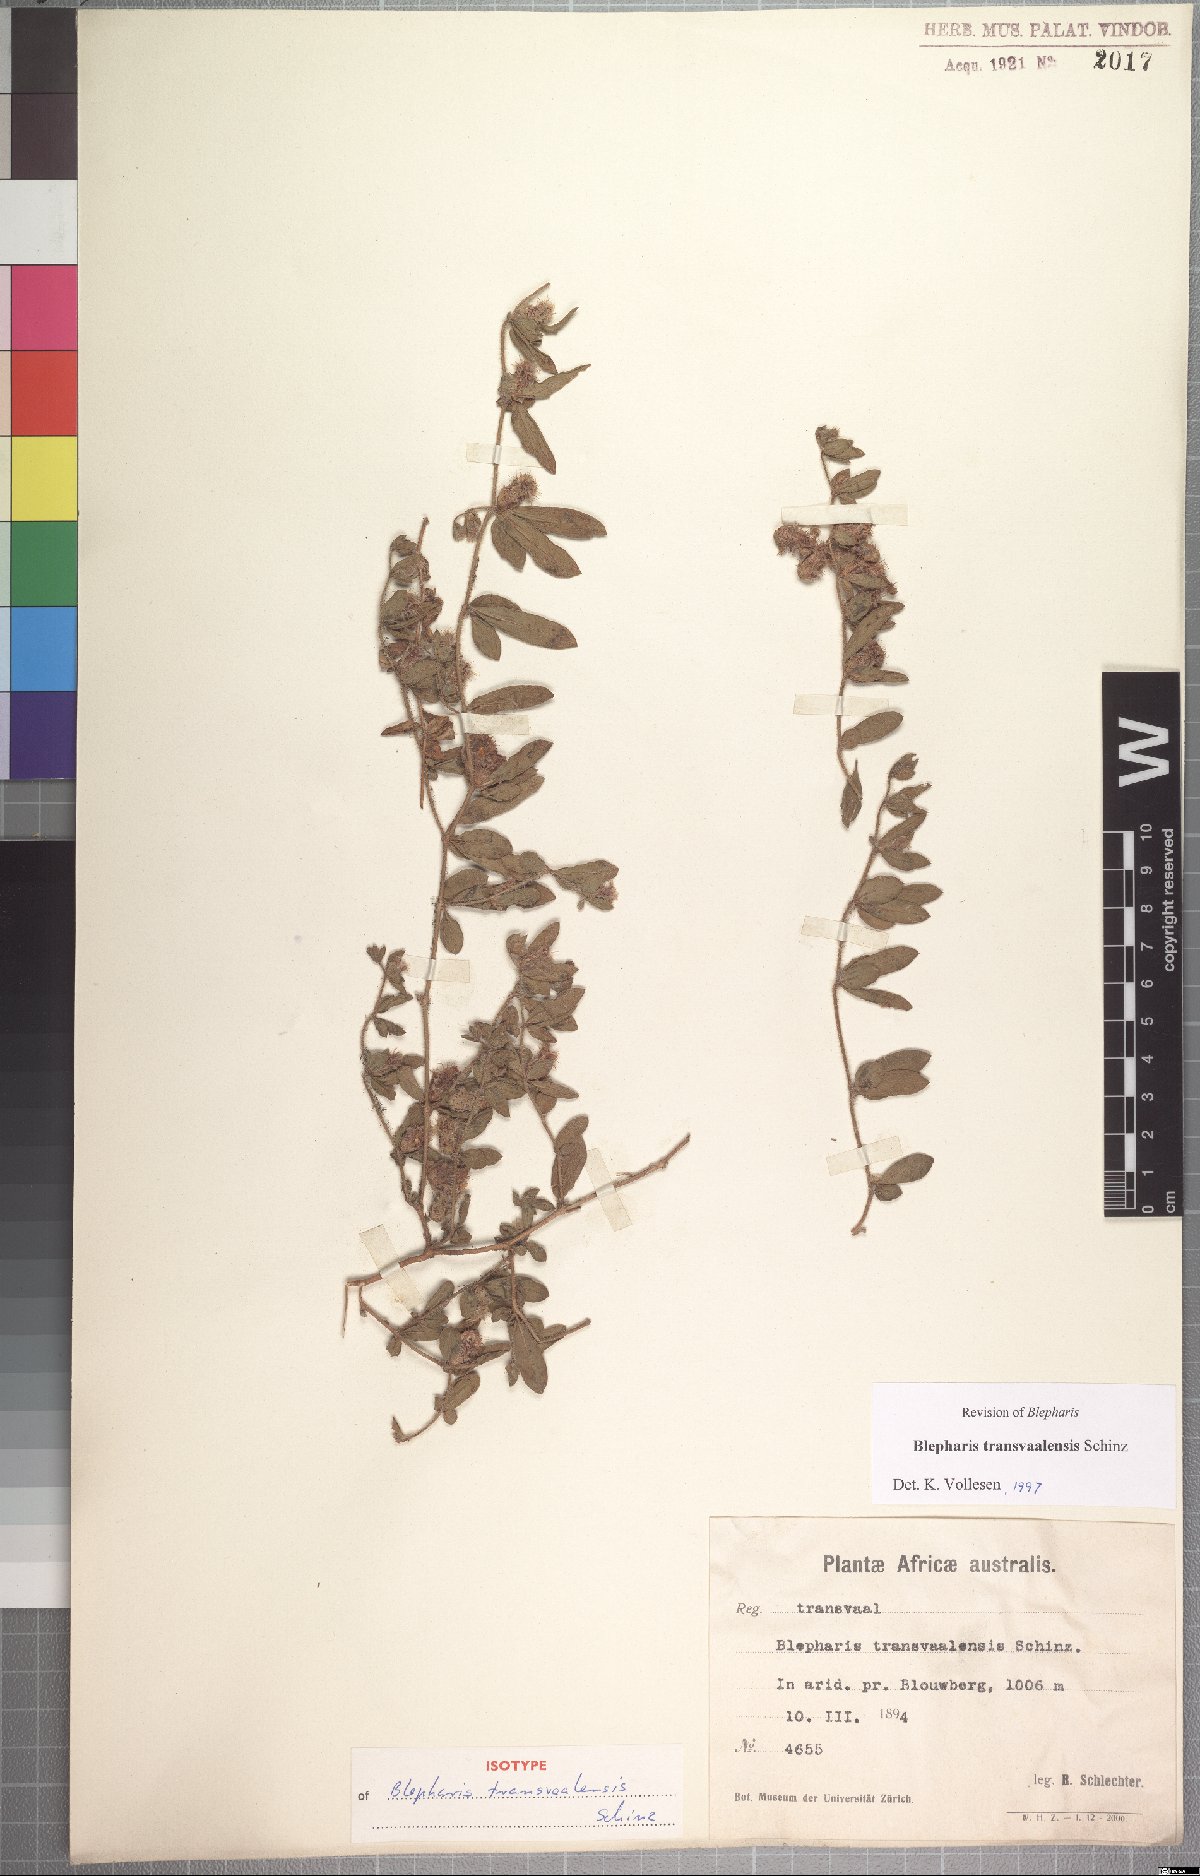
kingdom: Plantae
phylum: Tracheophyta
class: Magnoliopsida
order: Lamiales
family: Acanthaceae
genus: Blepharis
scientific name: Blepharis transvaalensis
